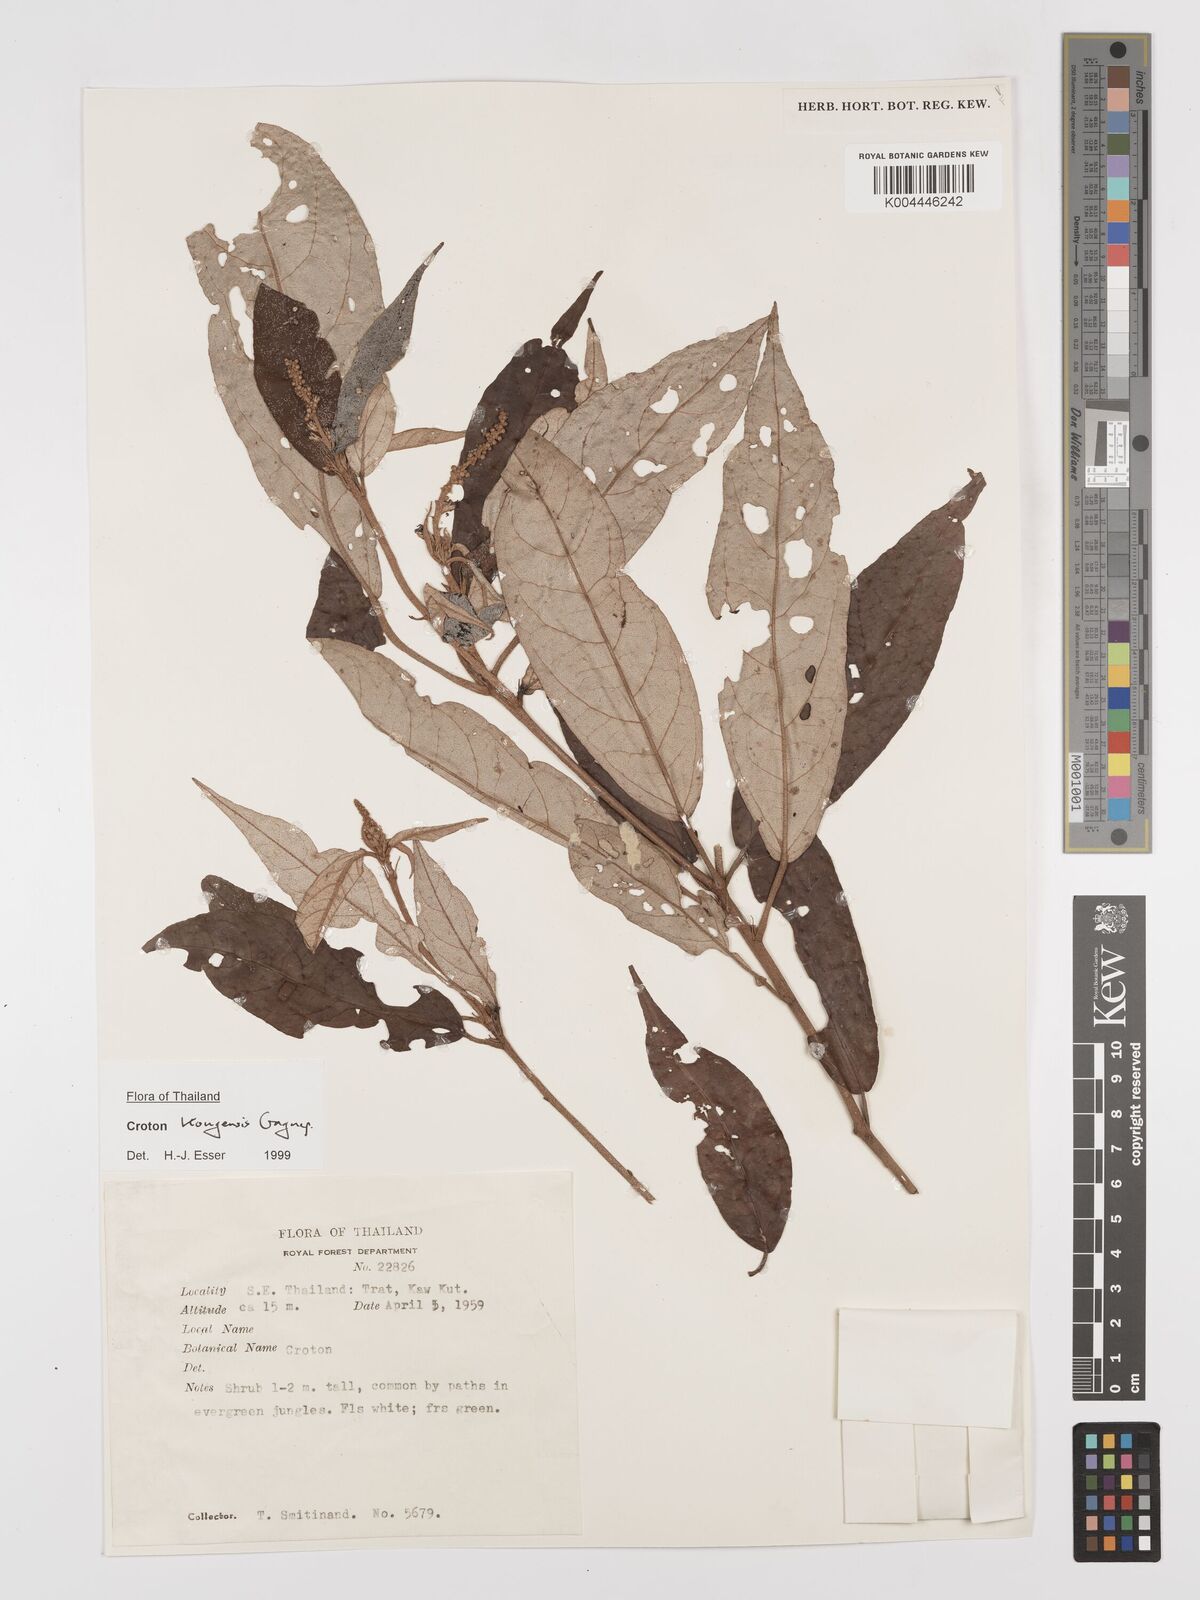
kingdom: Plantae
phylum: Tracheophyta
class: Magnoliopsida
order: Malpighiales
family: Euphorbiaceae
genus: Croton
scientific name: Croton kongensis
